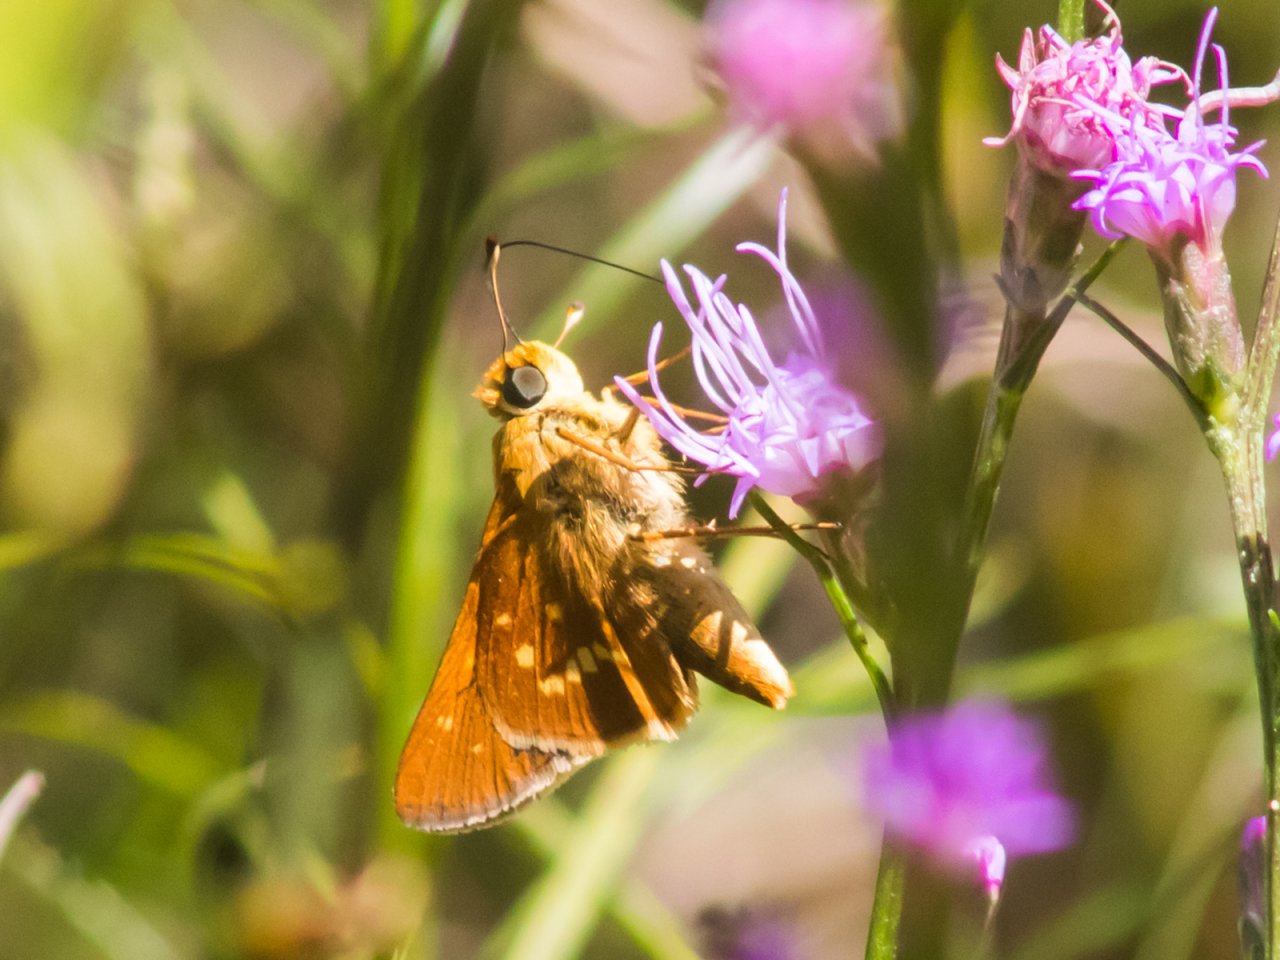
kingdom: Animalia
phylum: Arthropoda
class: Insecta
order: Lepidoptera
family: Hesperiidae
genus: Hesperia
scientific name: Hesperia leonardus
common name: Leonard's Skipper
